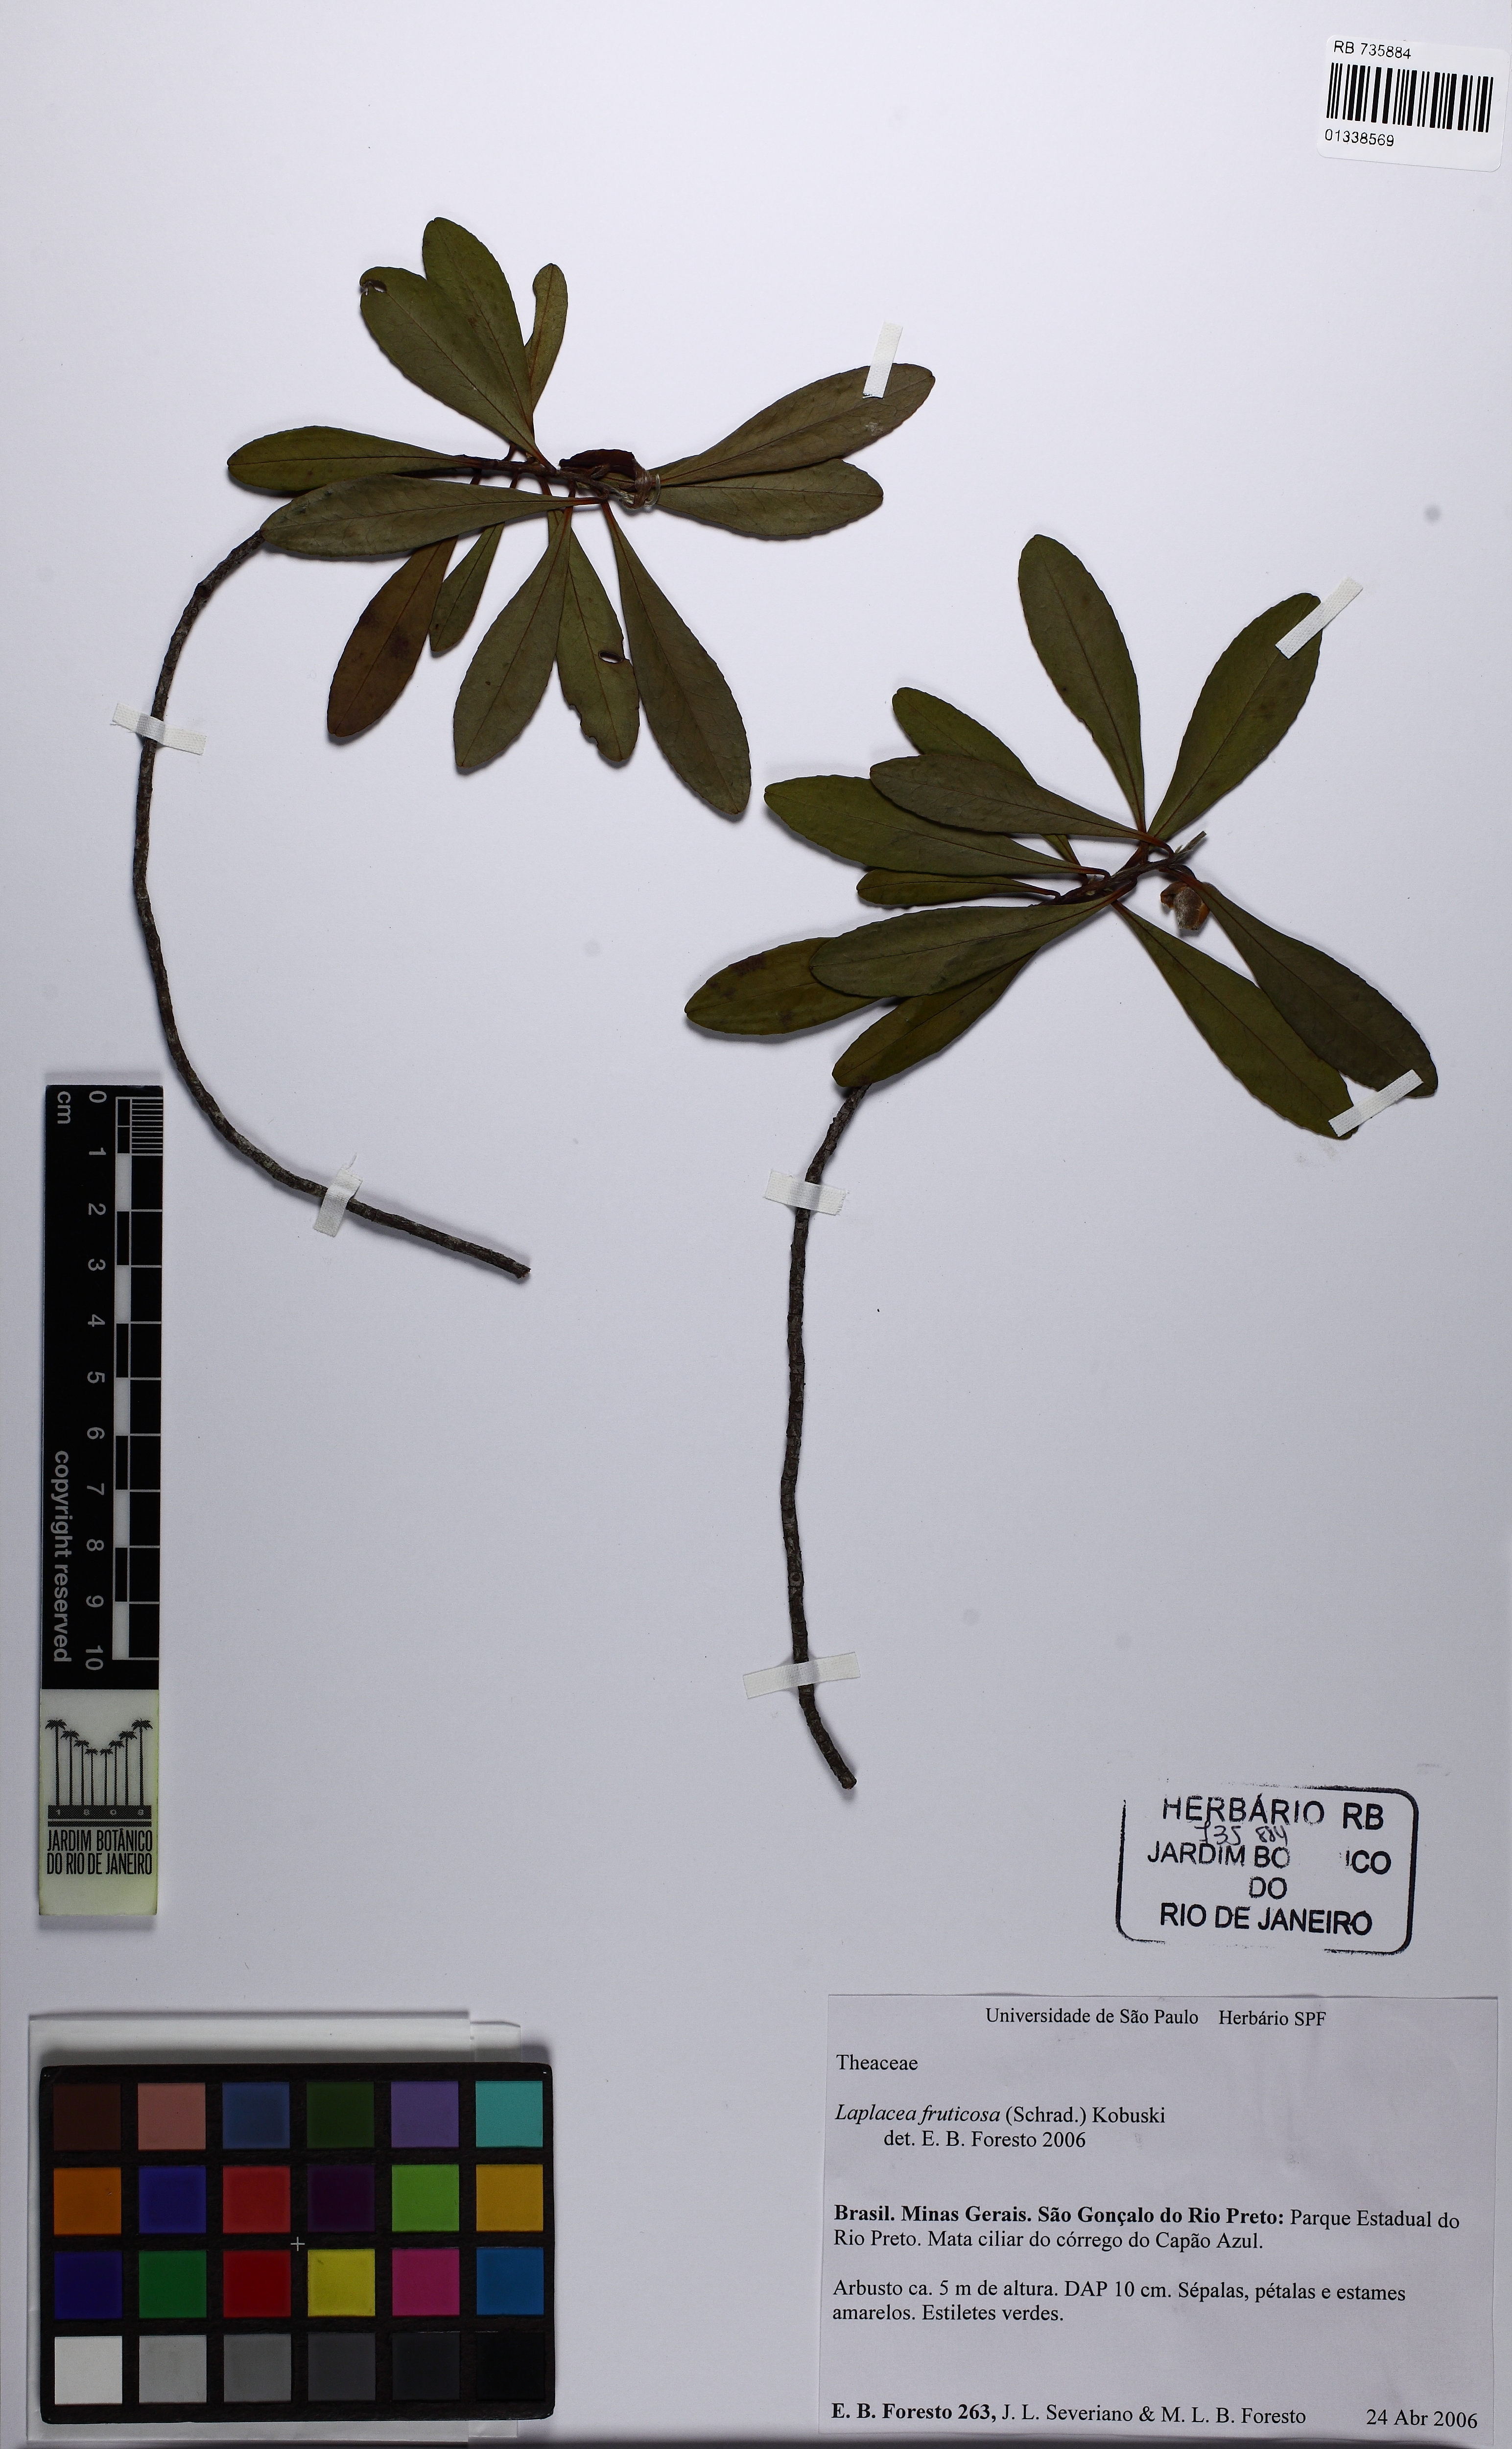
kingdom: Plantae
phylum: Tracheophyta
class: Magnoliopsida
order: Ericales
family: Theaceae
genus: Gordonia
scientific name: Gordonia fruticosa
